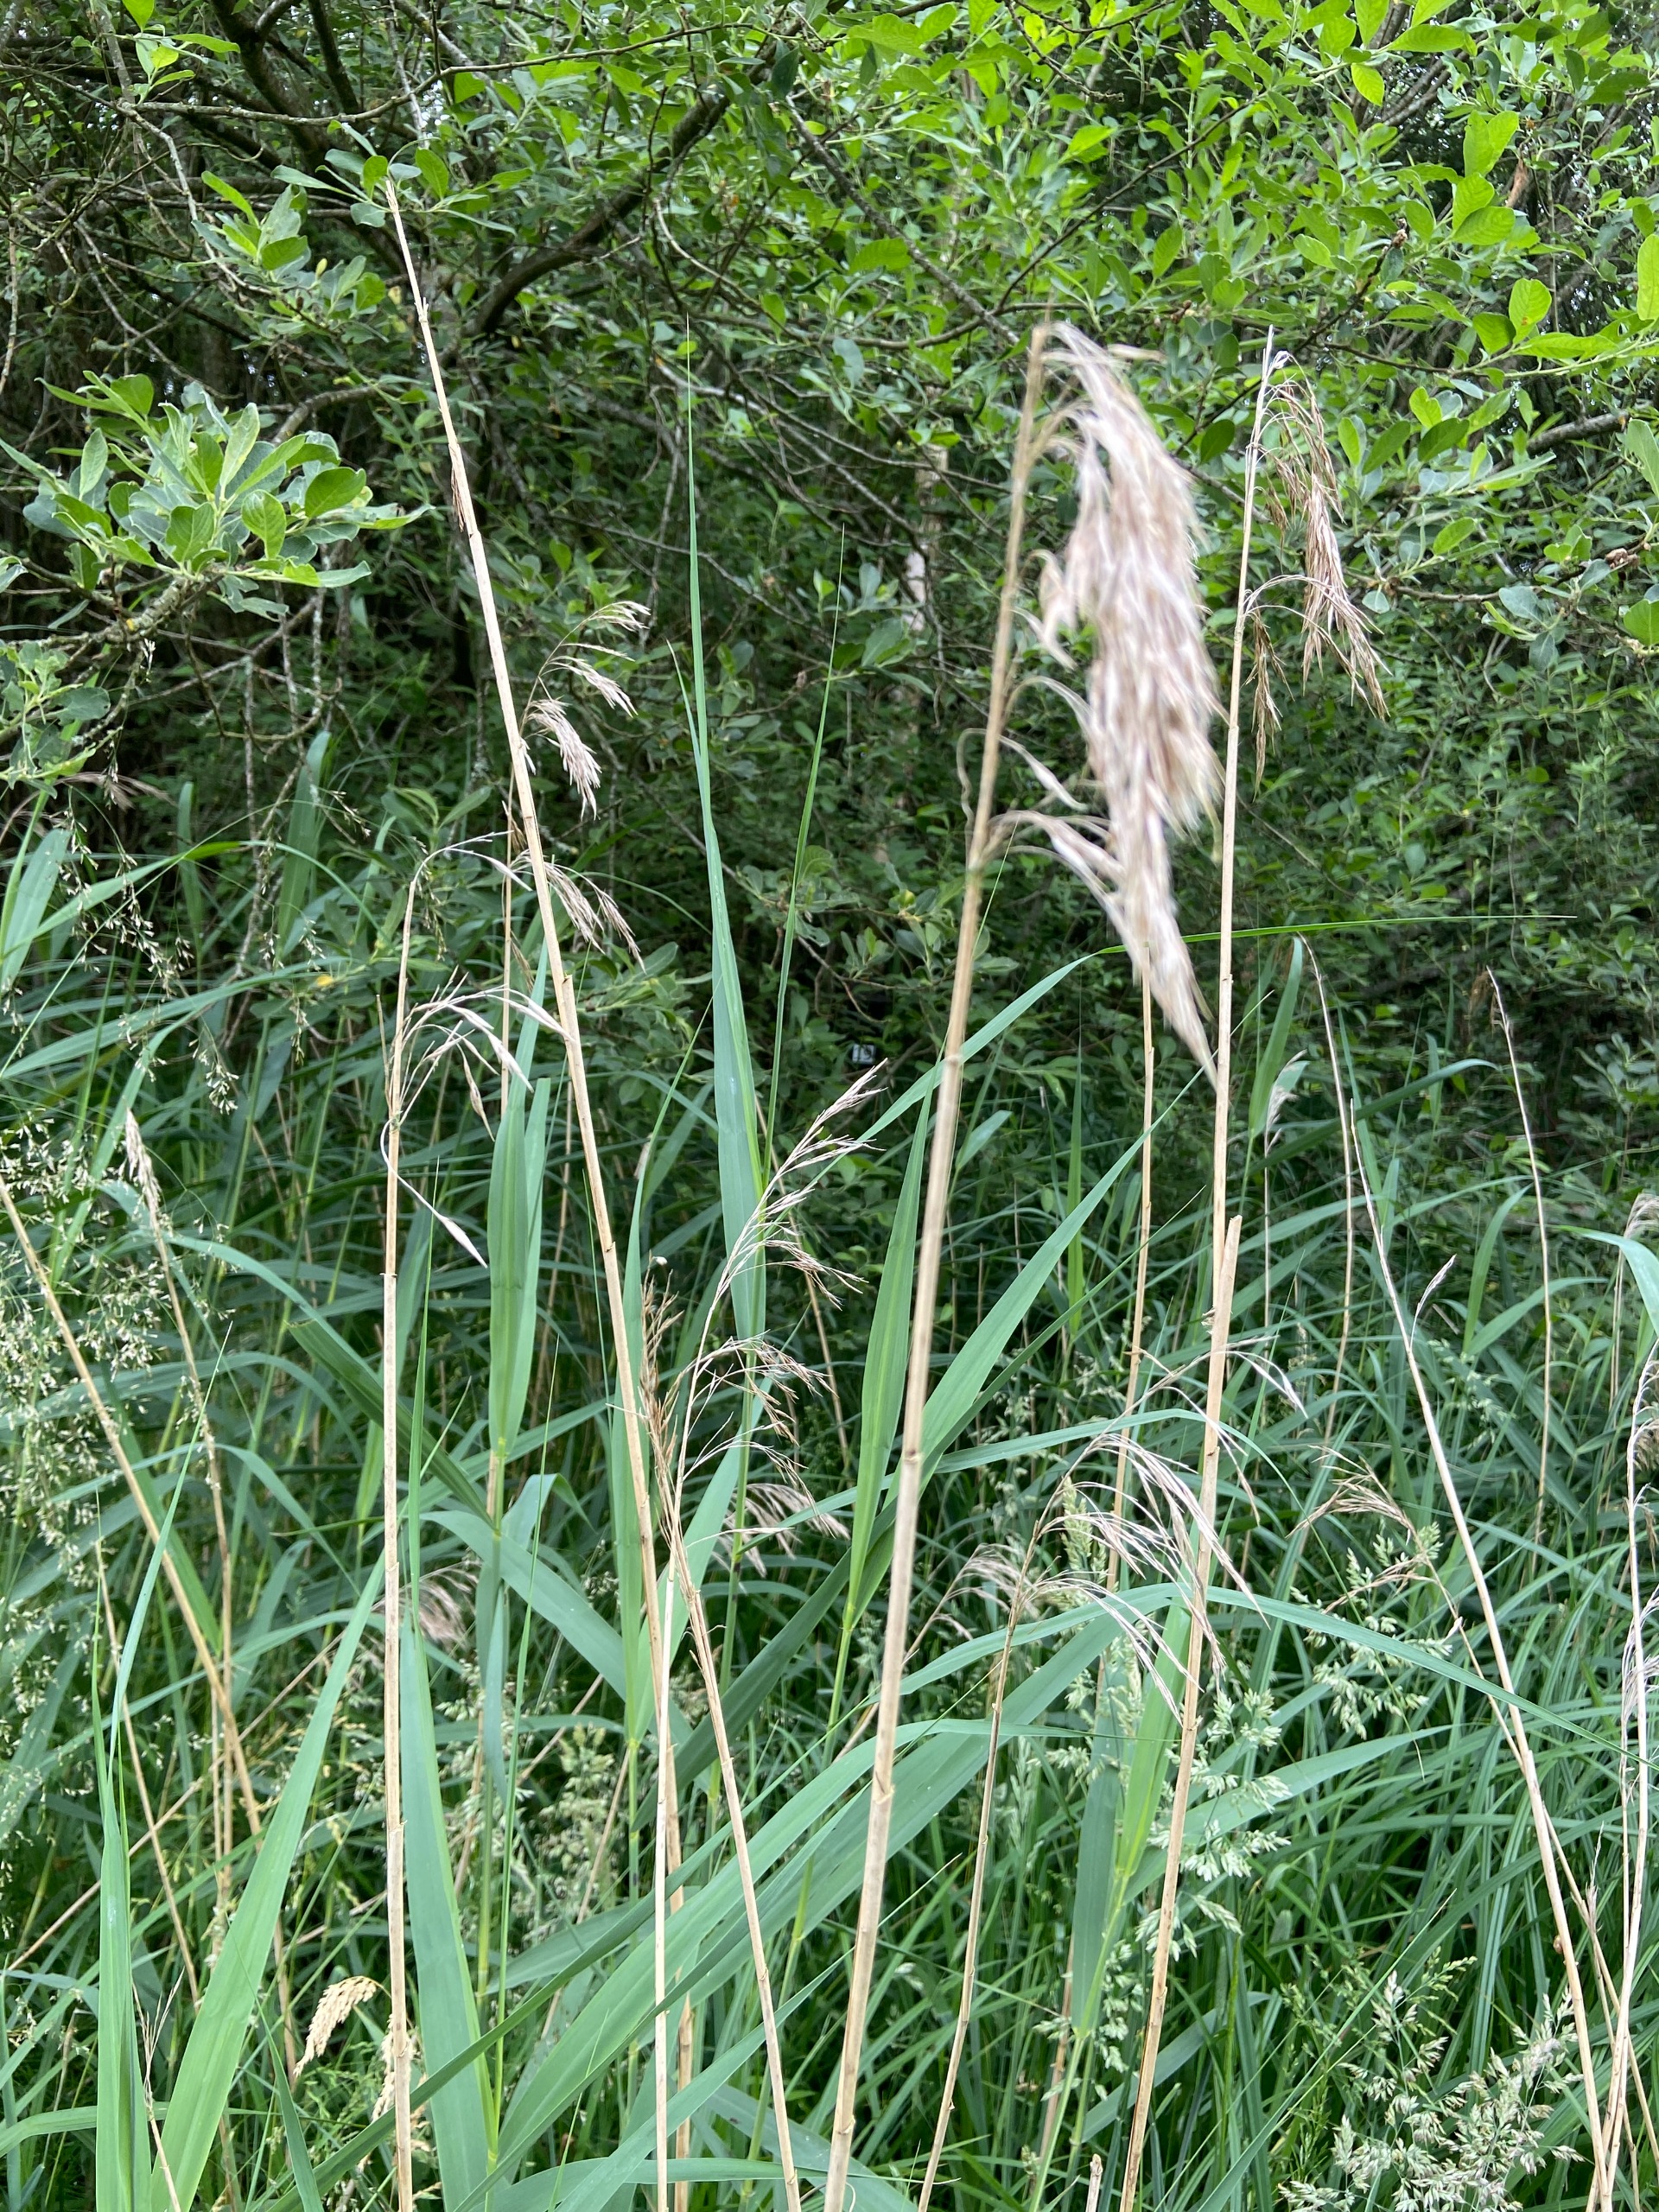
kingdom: Plantae
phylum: Tracheophyta
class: Liliopsida
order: Poales
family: Poaceae
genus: Phragmites
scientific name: Phragmites australis
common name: Tagrør
